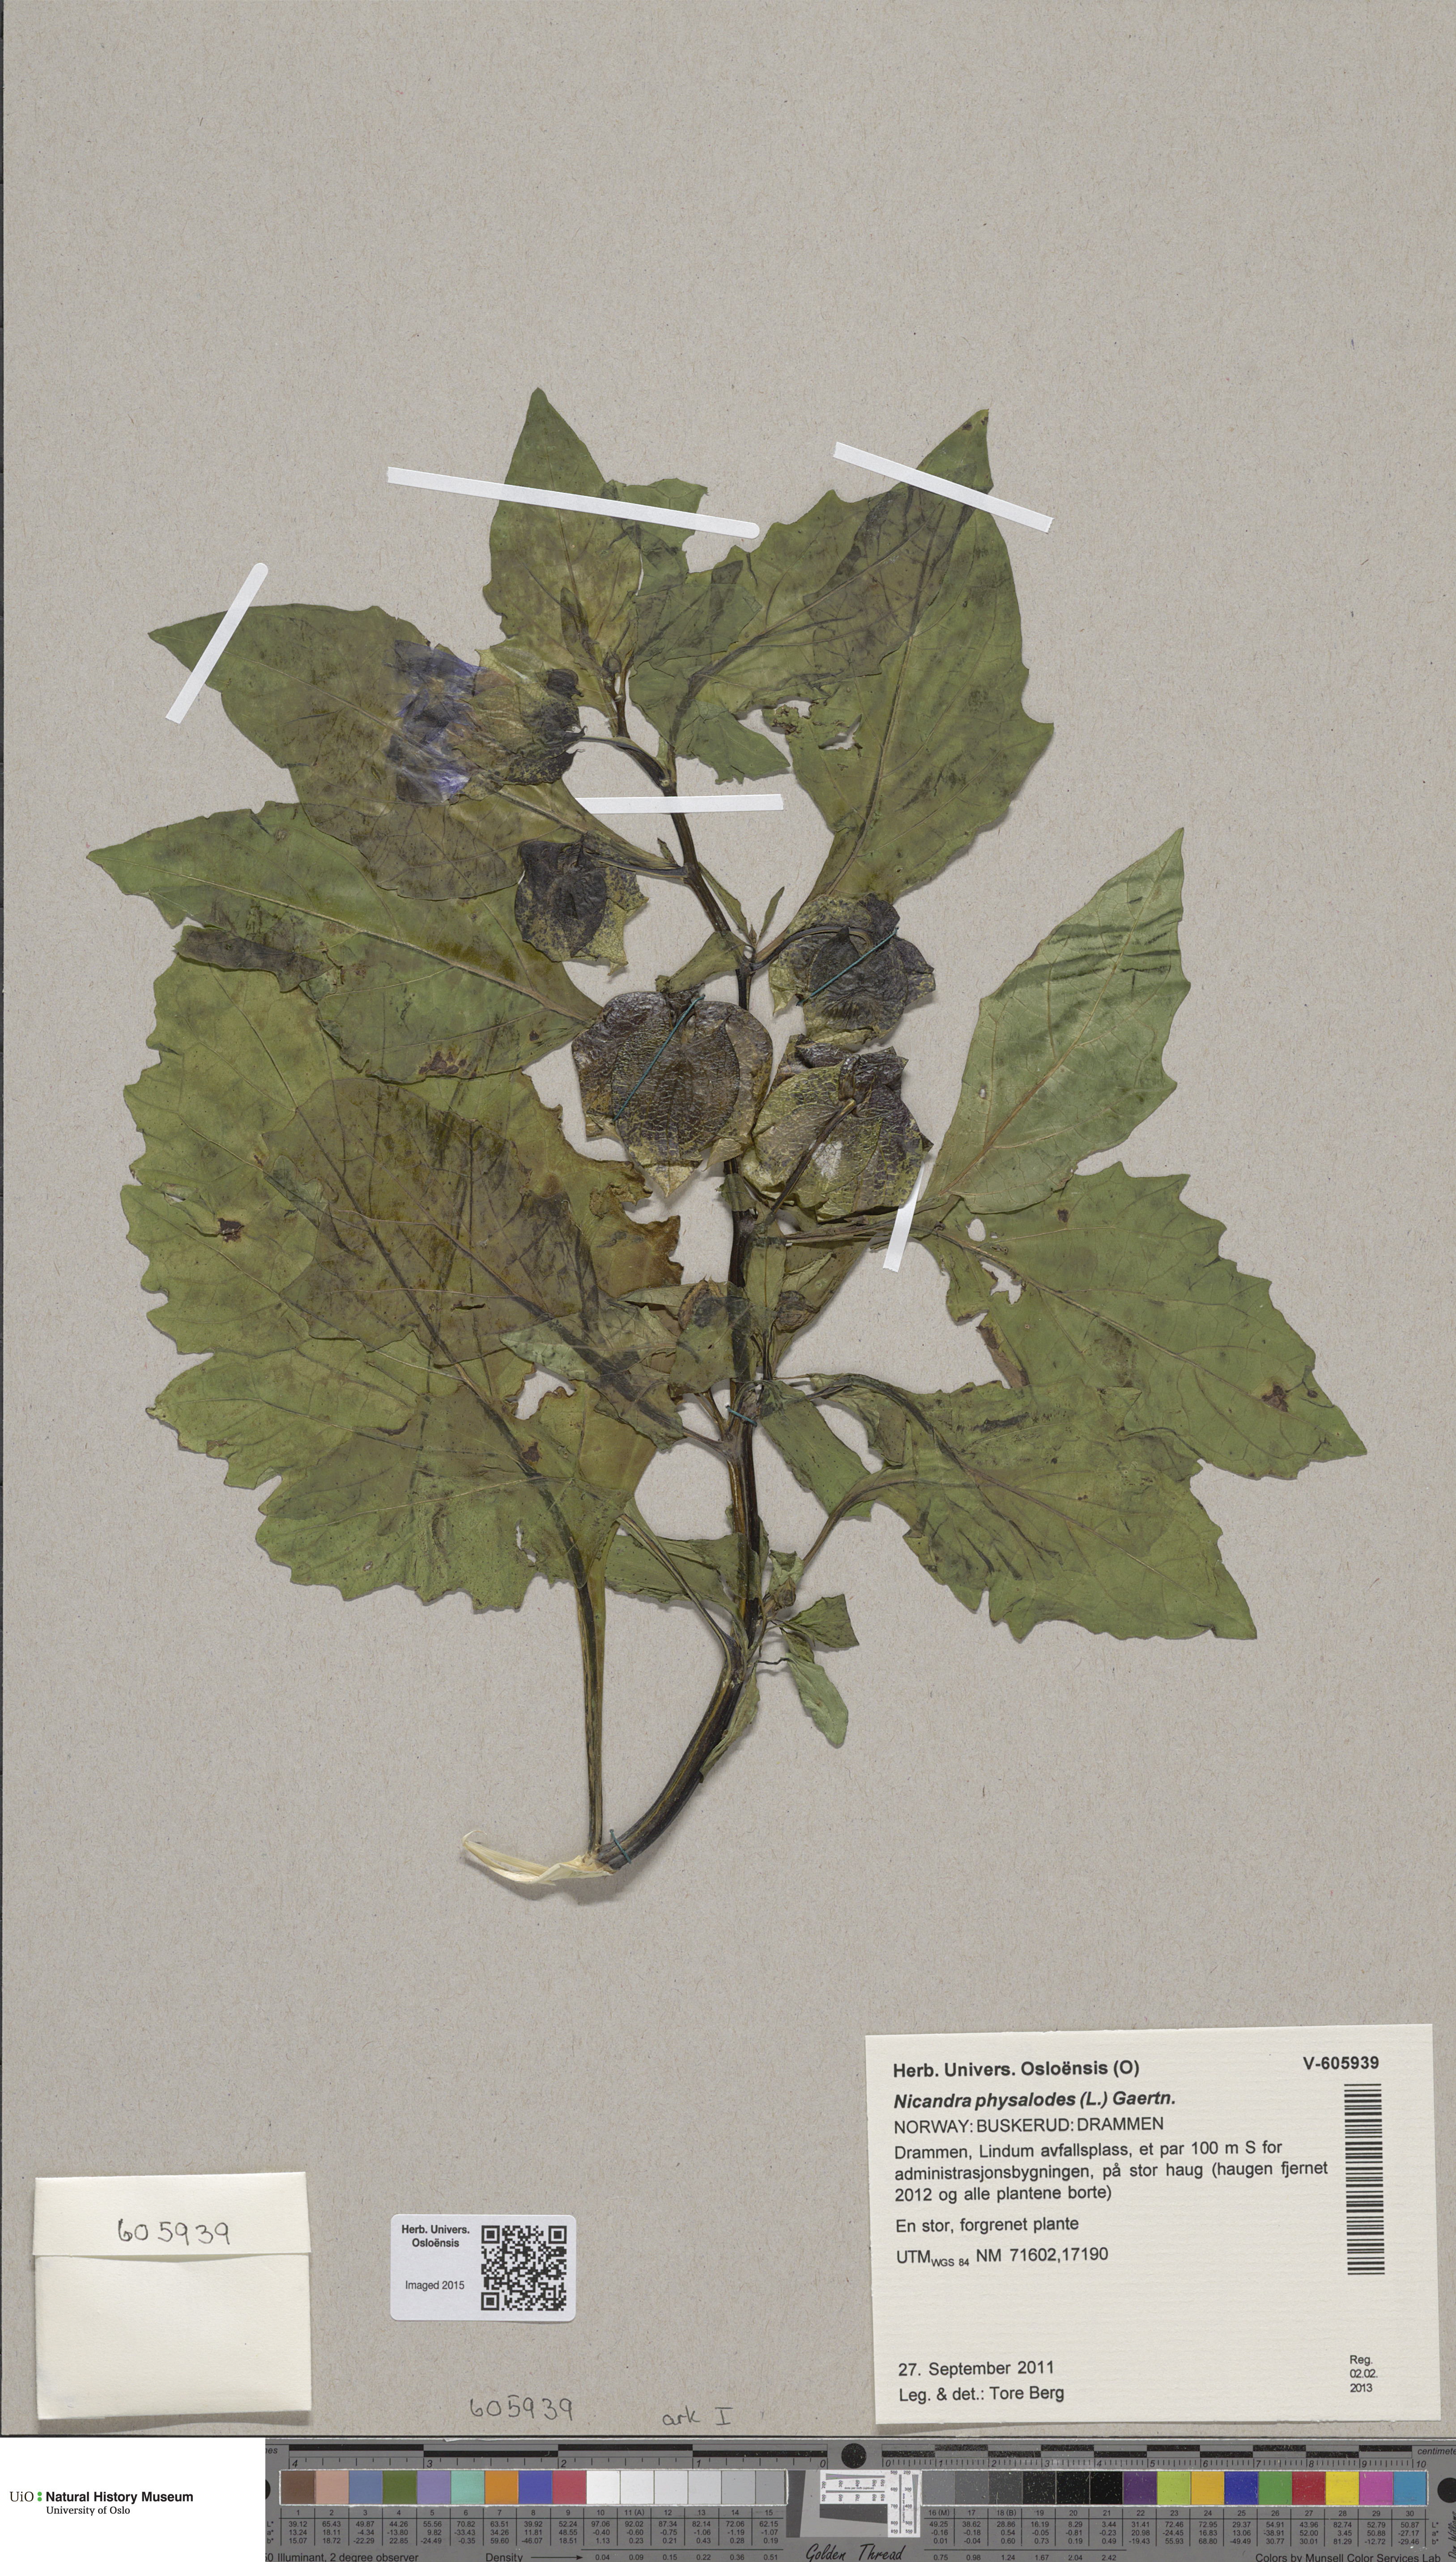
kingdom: Plantae
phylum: Tracheophyta
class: Magnoliopsida
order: Solanales
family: Solanaceae
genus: Nicandra
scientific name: Nicandra physalodes
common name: Apple-of-peru
